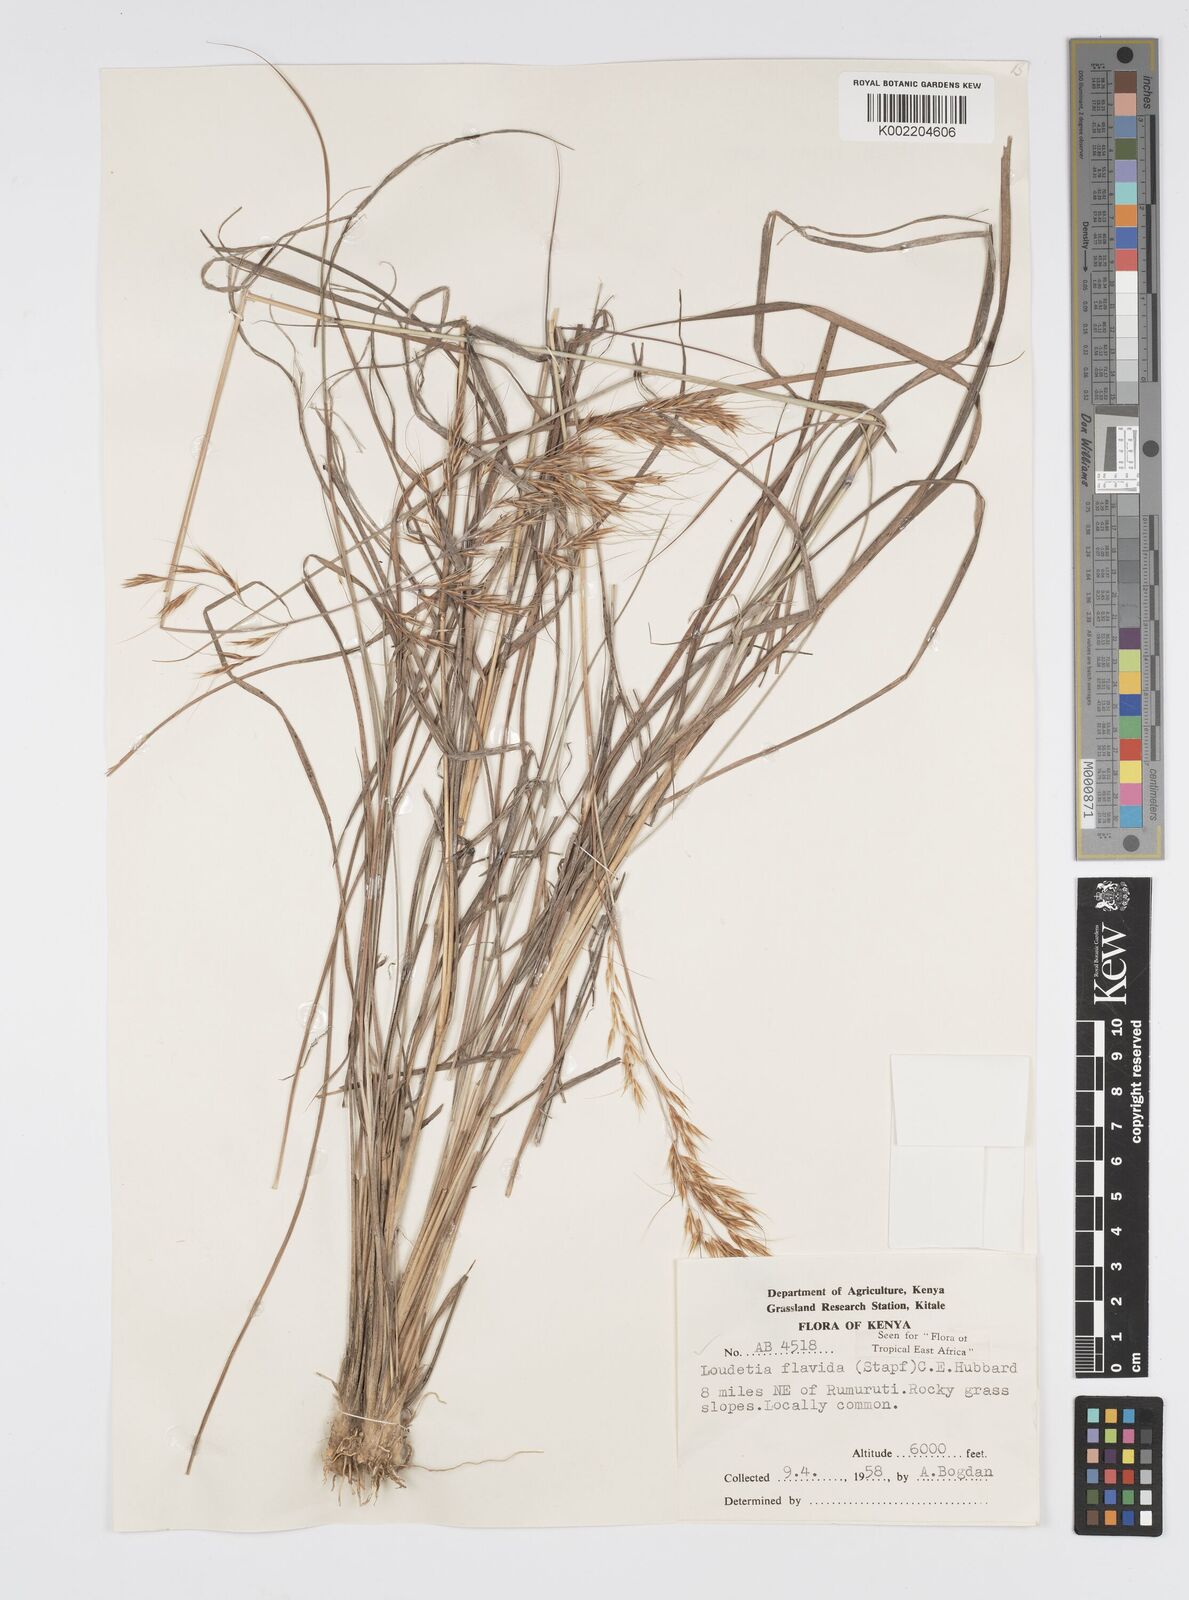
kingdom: Plantae
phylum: Tracheophyta
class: Liliopsida
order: Poales
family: Poaceae
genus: Loudetia
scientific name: Loudetia flavida
